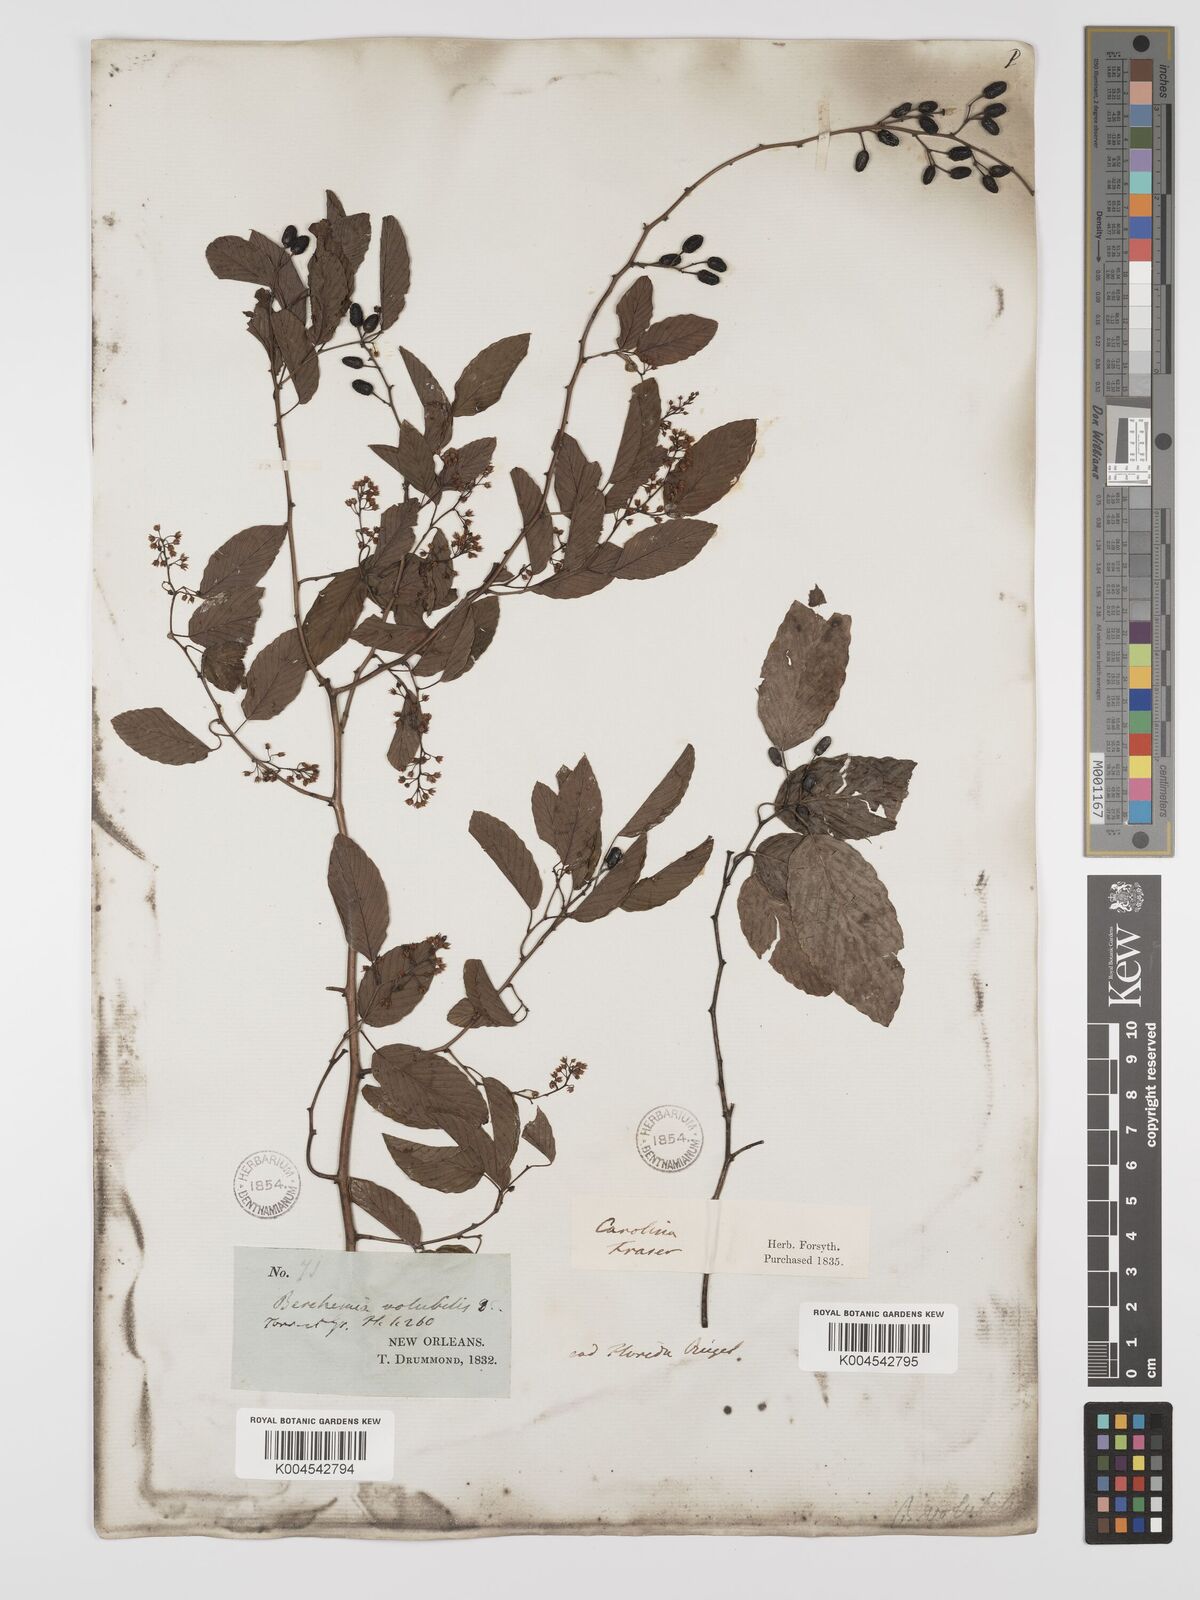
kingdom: Plantae
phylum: Tracheophyta
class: Magnoliopsida
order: Rosales
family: Rhamnaceae
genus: Berchemia
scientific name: Berchemia scandens
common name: Supplejack
